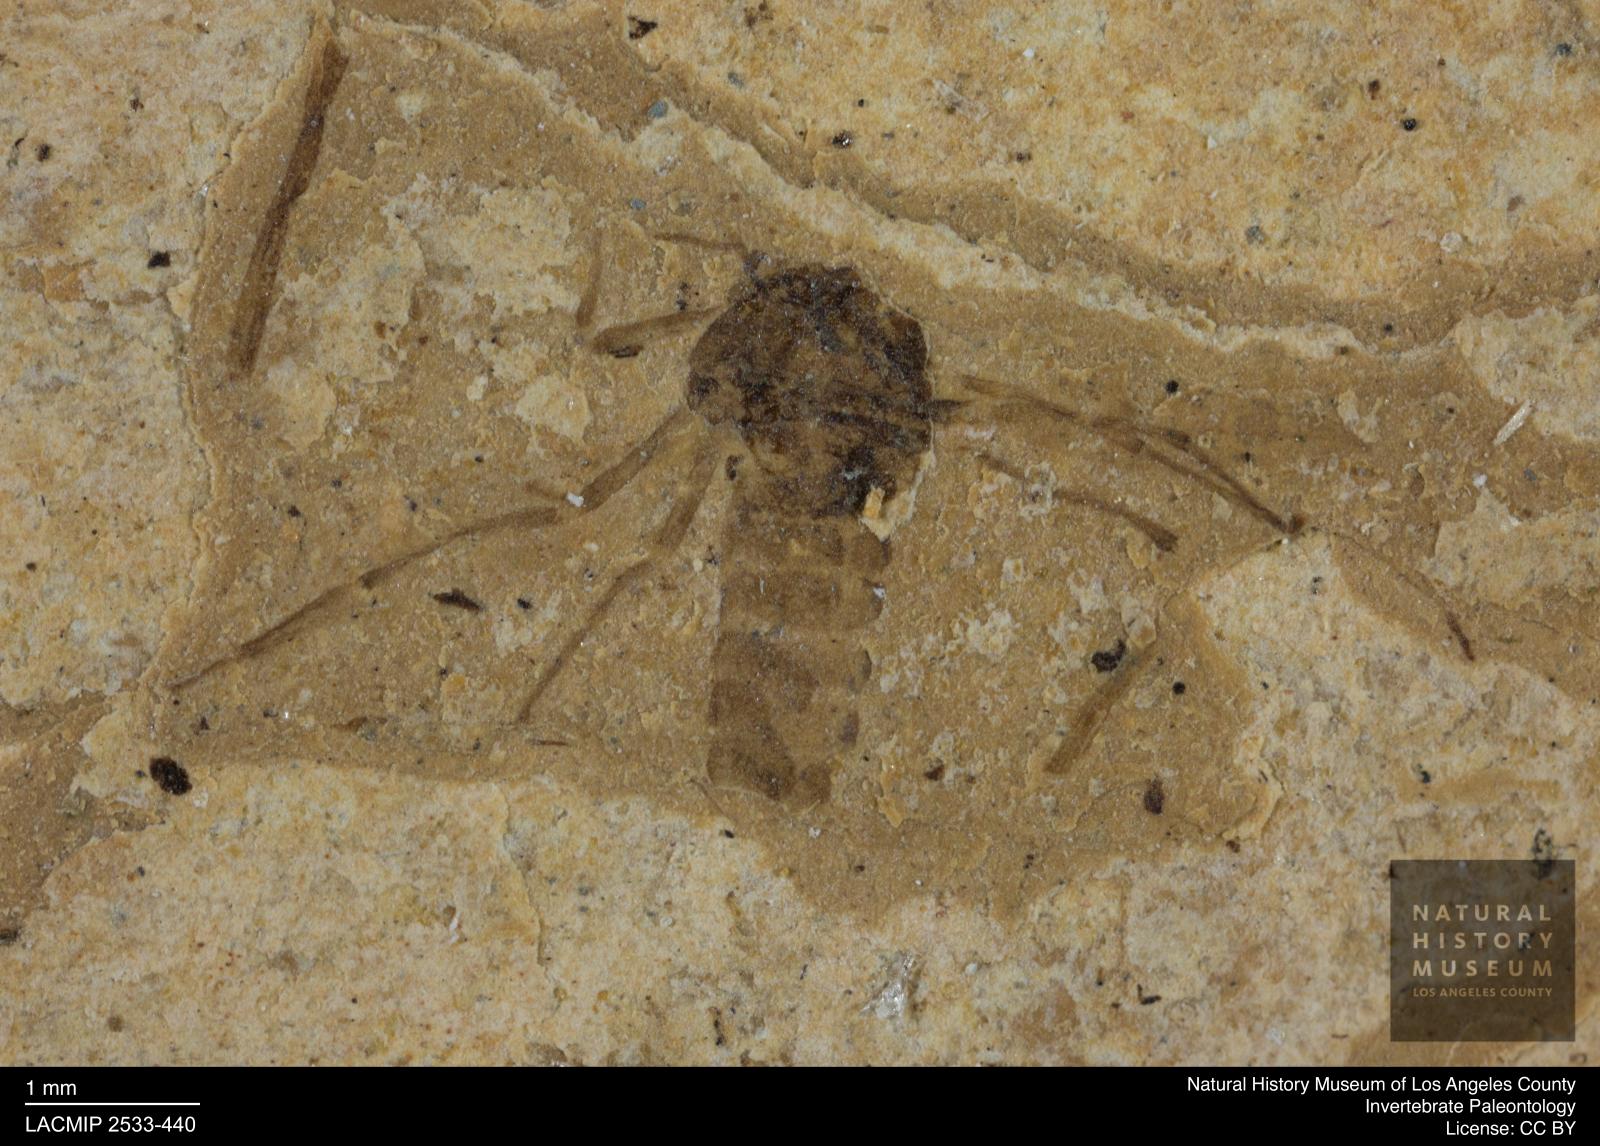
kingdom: Animalia
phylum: Arthropoda
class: Insecta
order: Diptera
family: Chironomidae
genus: Tanypus
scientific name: Tanypus thienemanni
